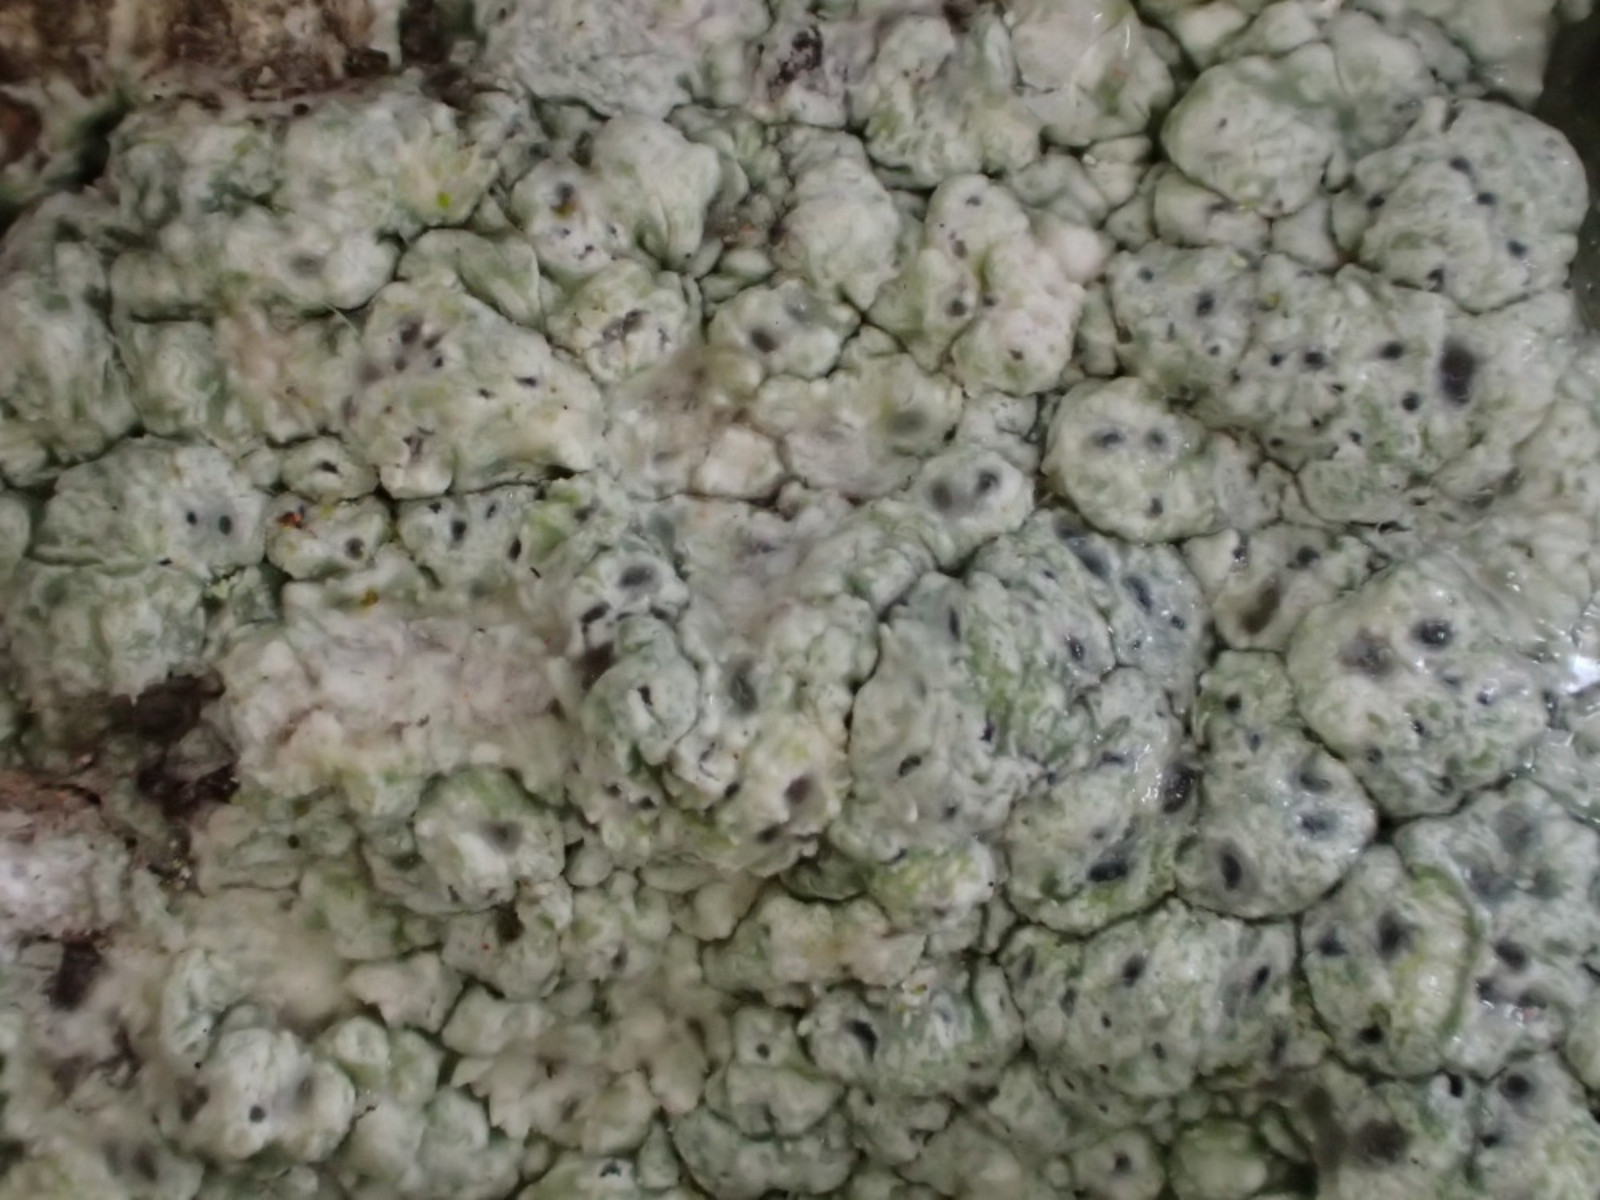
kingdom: Fungi
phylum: Ascomycota
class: Lecanoromycetes
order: Pertusariales
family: Pertusariaceae
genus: Pertusaria
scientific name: Pertusaria pertusa
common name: almindelig prikvortelav
